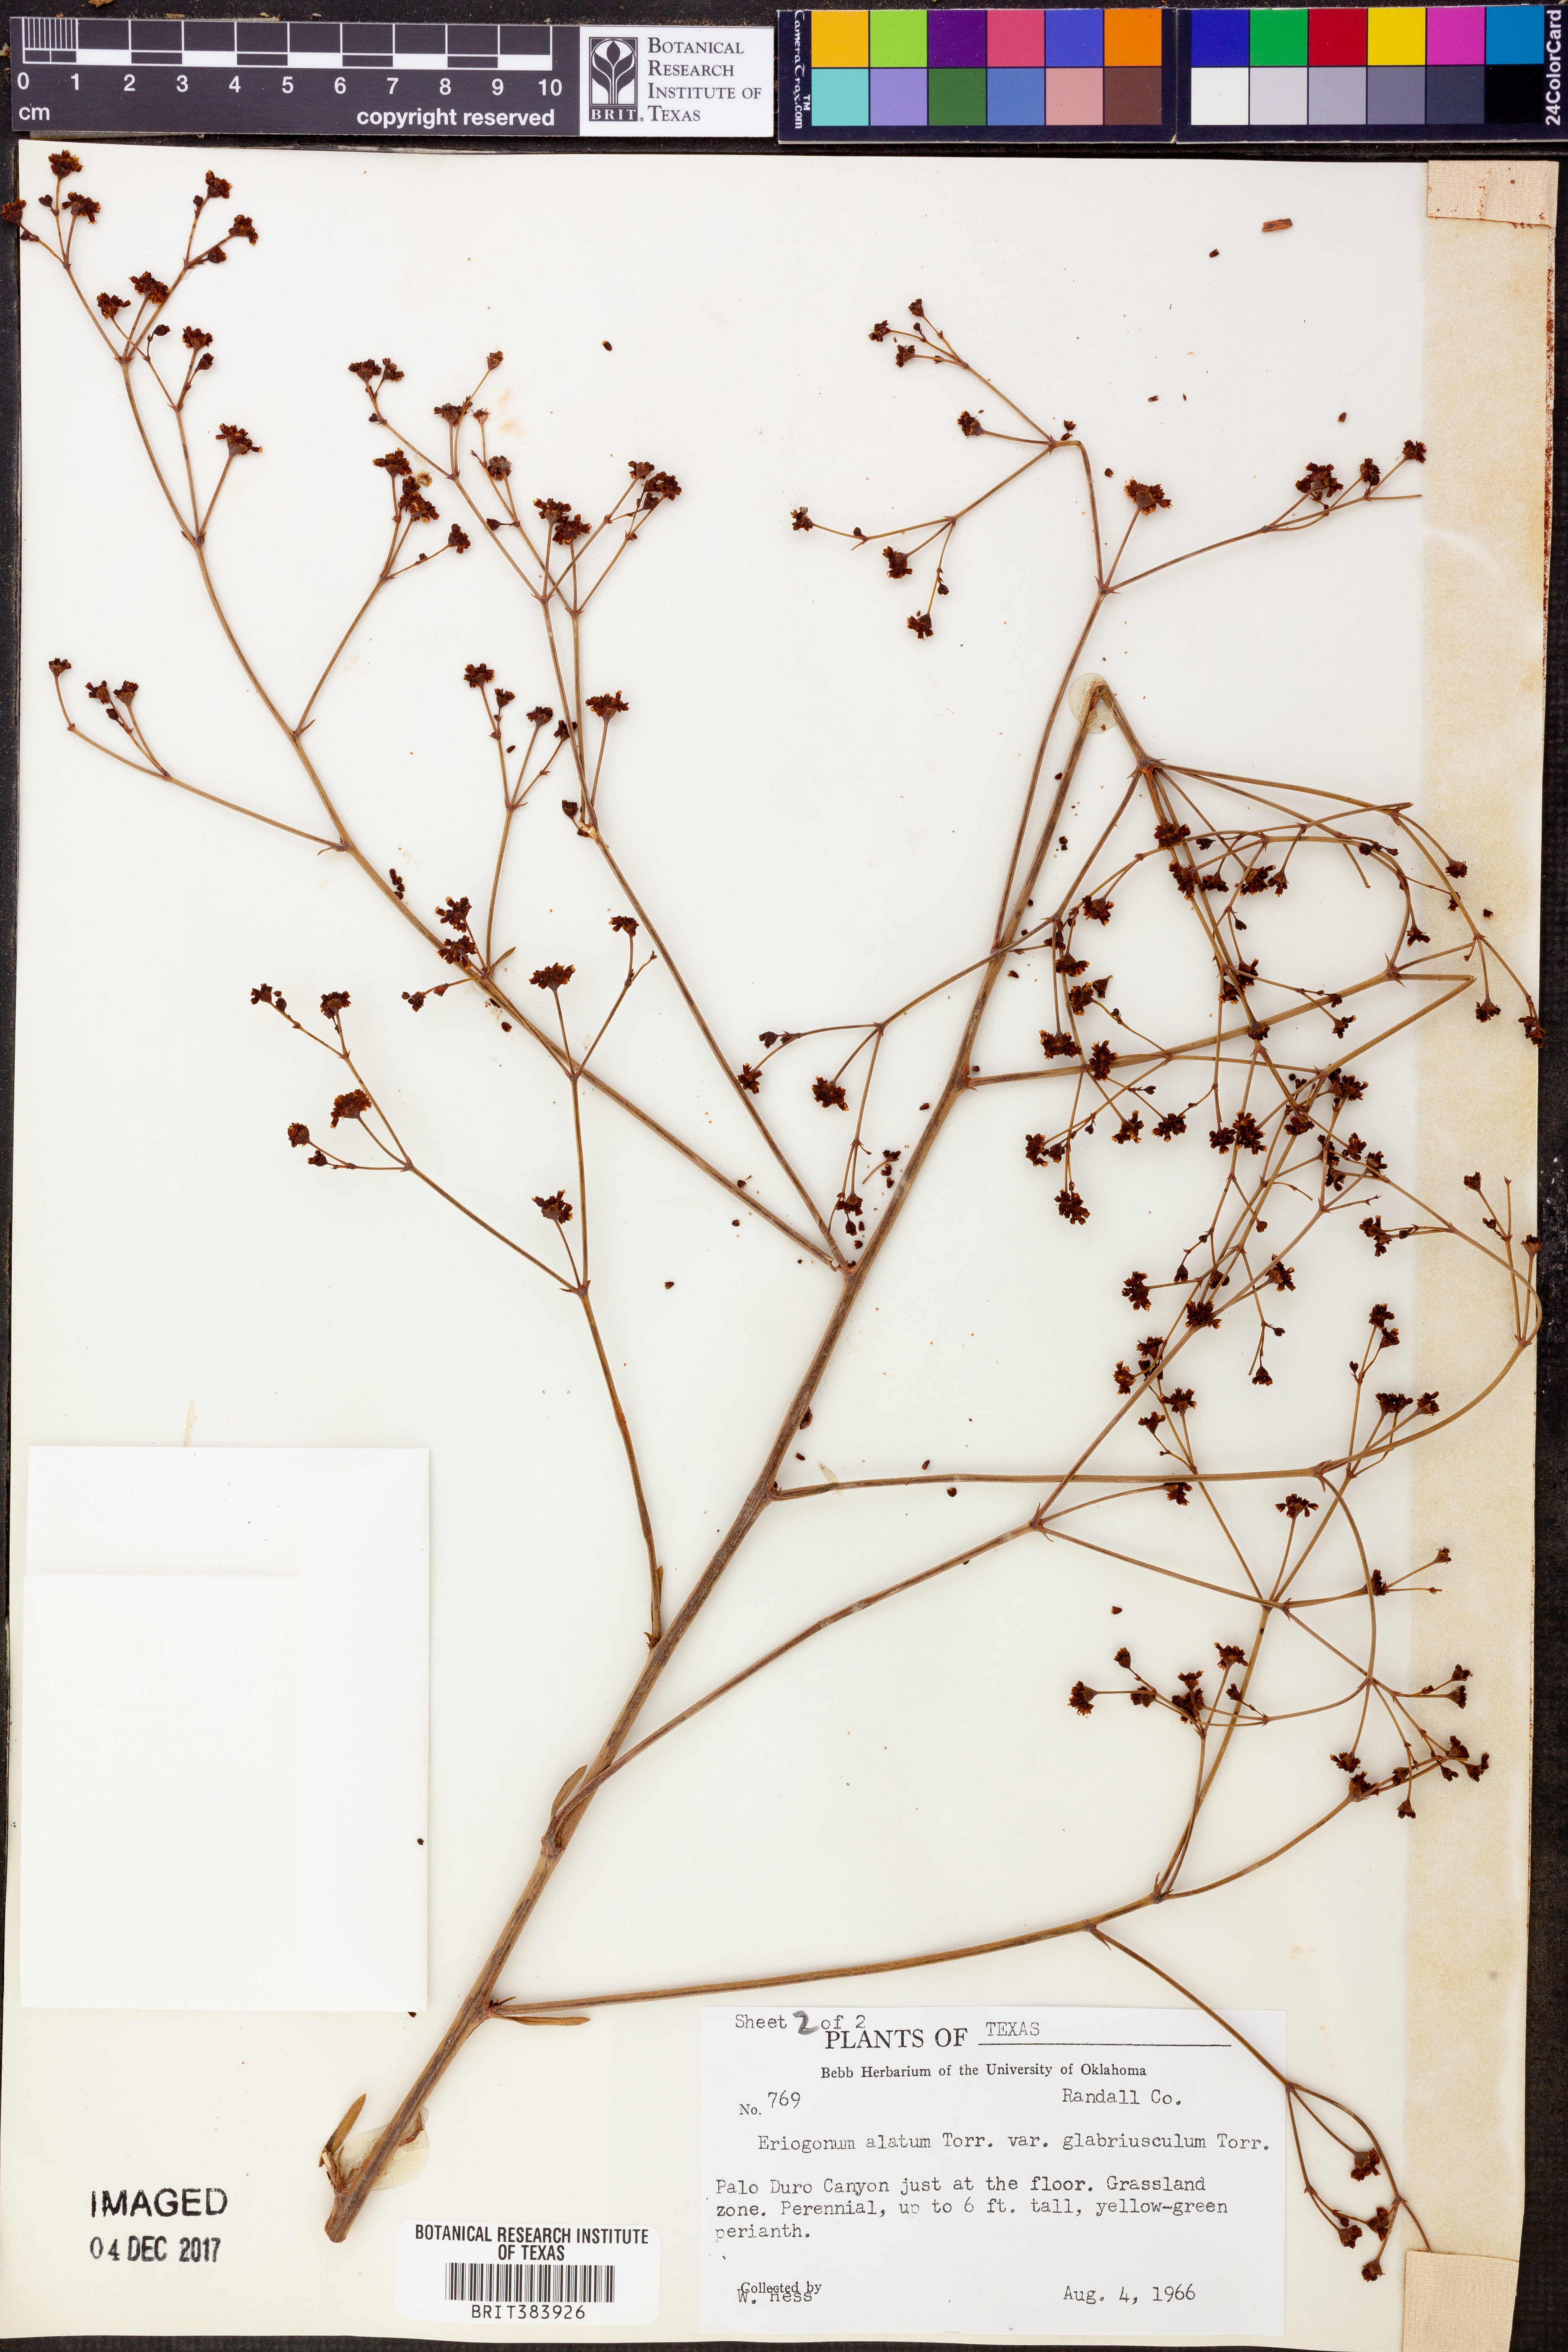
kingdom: Plantae
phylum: Tracheophyta
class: Magnoliopsida
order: Caryophyllales
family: Polygonaceae
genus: Eriogonum
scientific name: Eriogonum alatum
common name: Winged eriogonum
